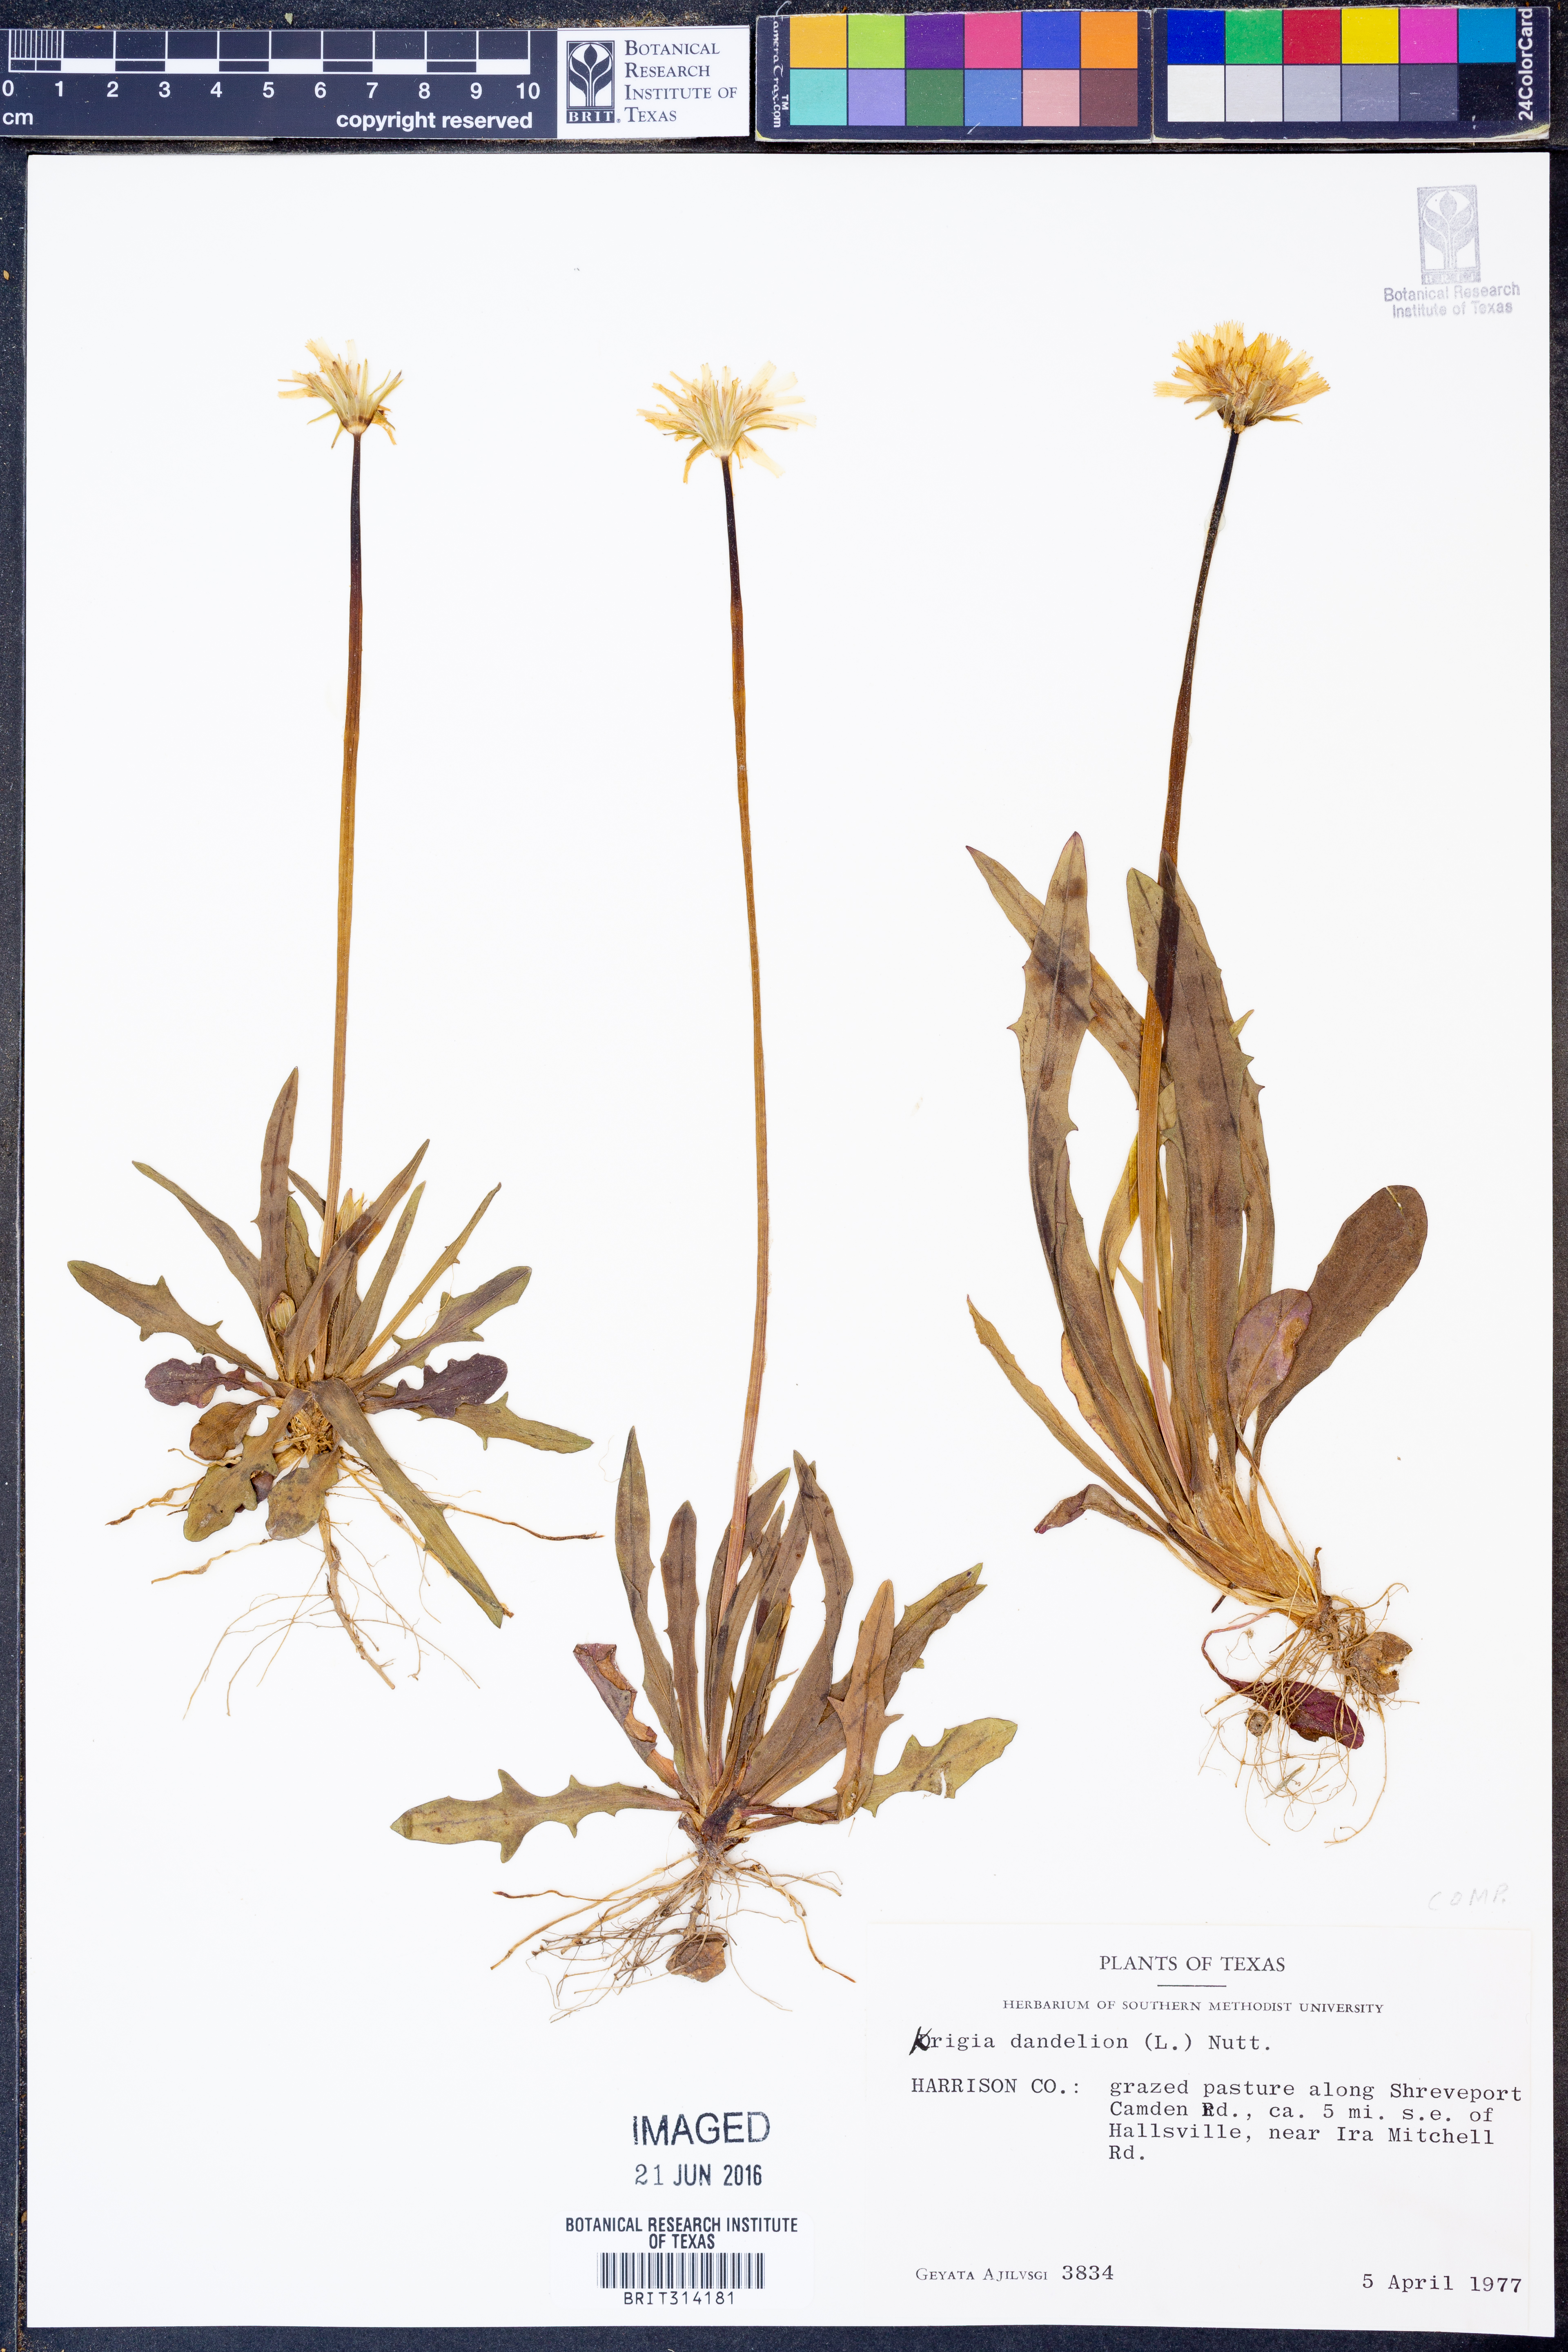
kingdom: Plantae
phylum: Tracheophyta
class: Magnoliopsida
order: Asterales
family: Asteraceae
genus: Krigia
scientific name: Krigia dandelion
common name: Colonial dwarf-dandelion
